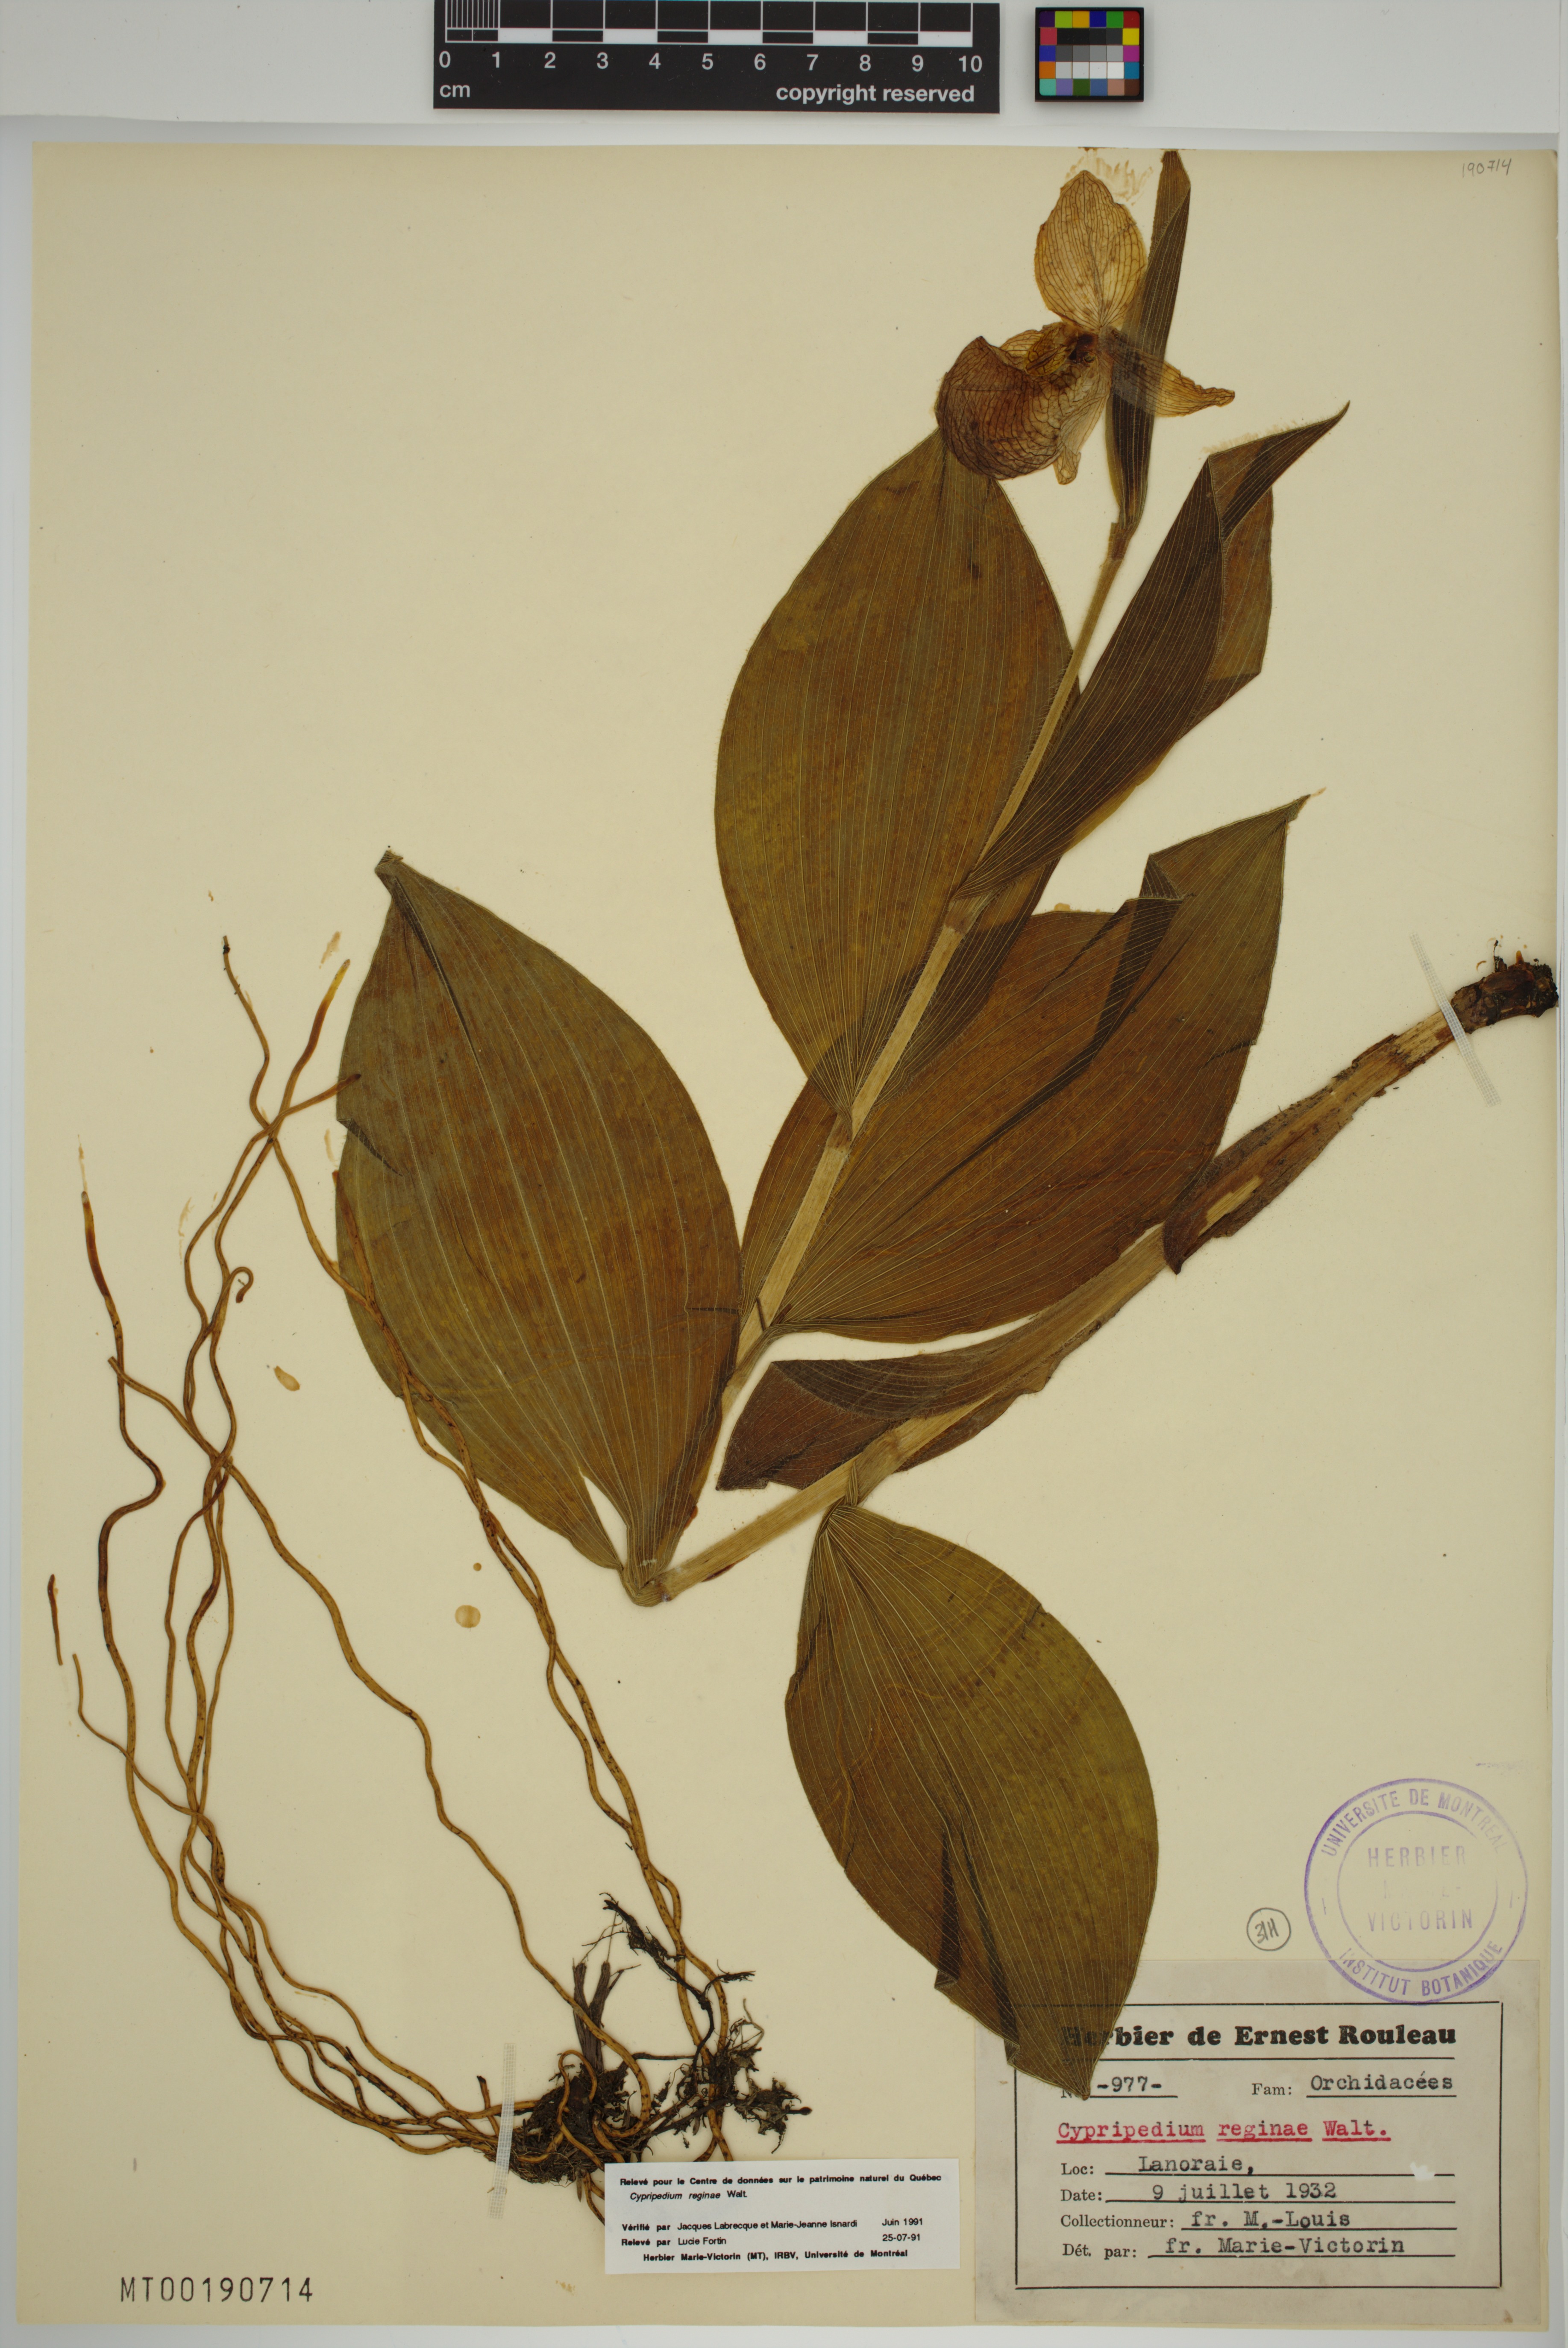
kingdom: Plantae
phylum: Tracheophyta
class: Liliopsida
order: Asparagales
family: Orchidaceae
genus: Cypripedium
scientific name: Cypripedium reginae
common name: Queen lady's-slipper
